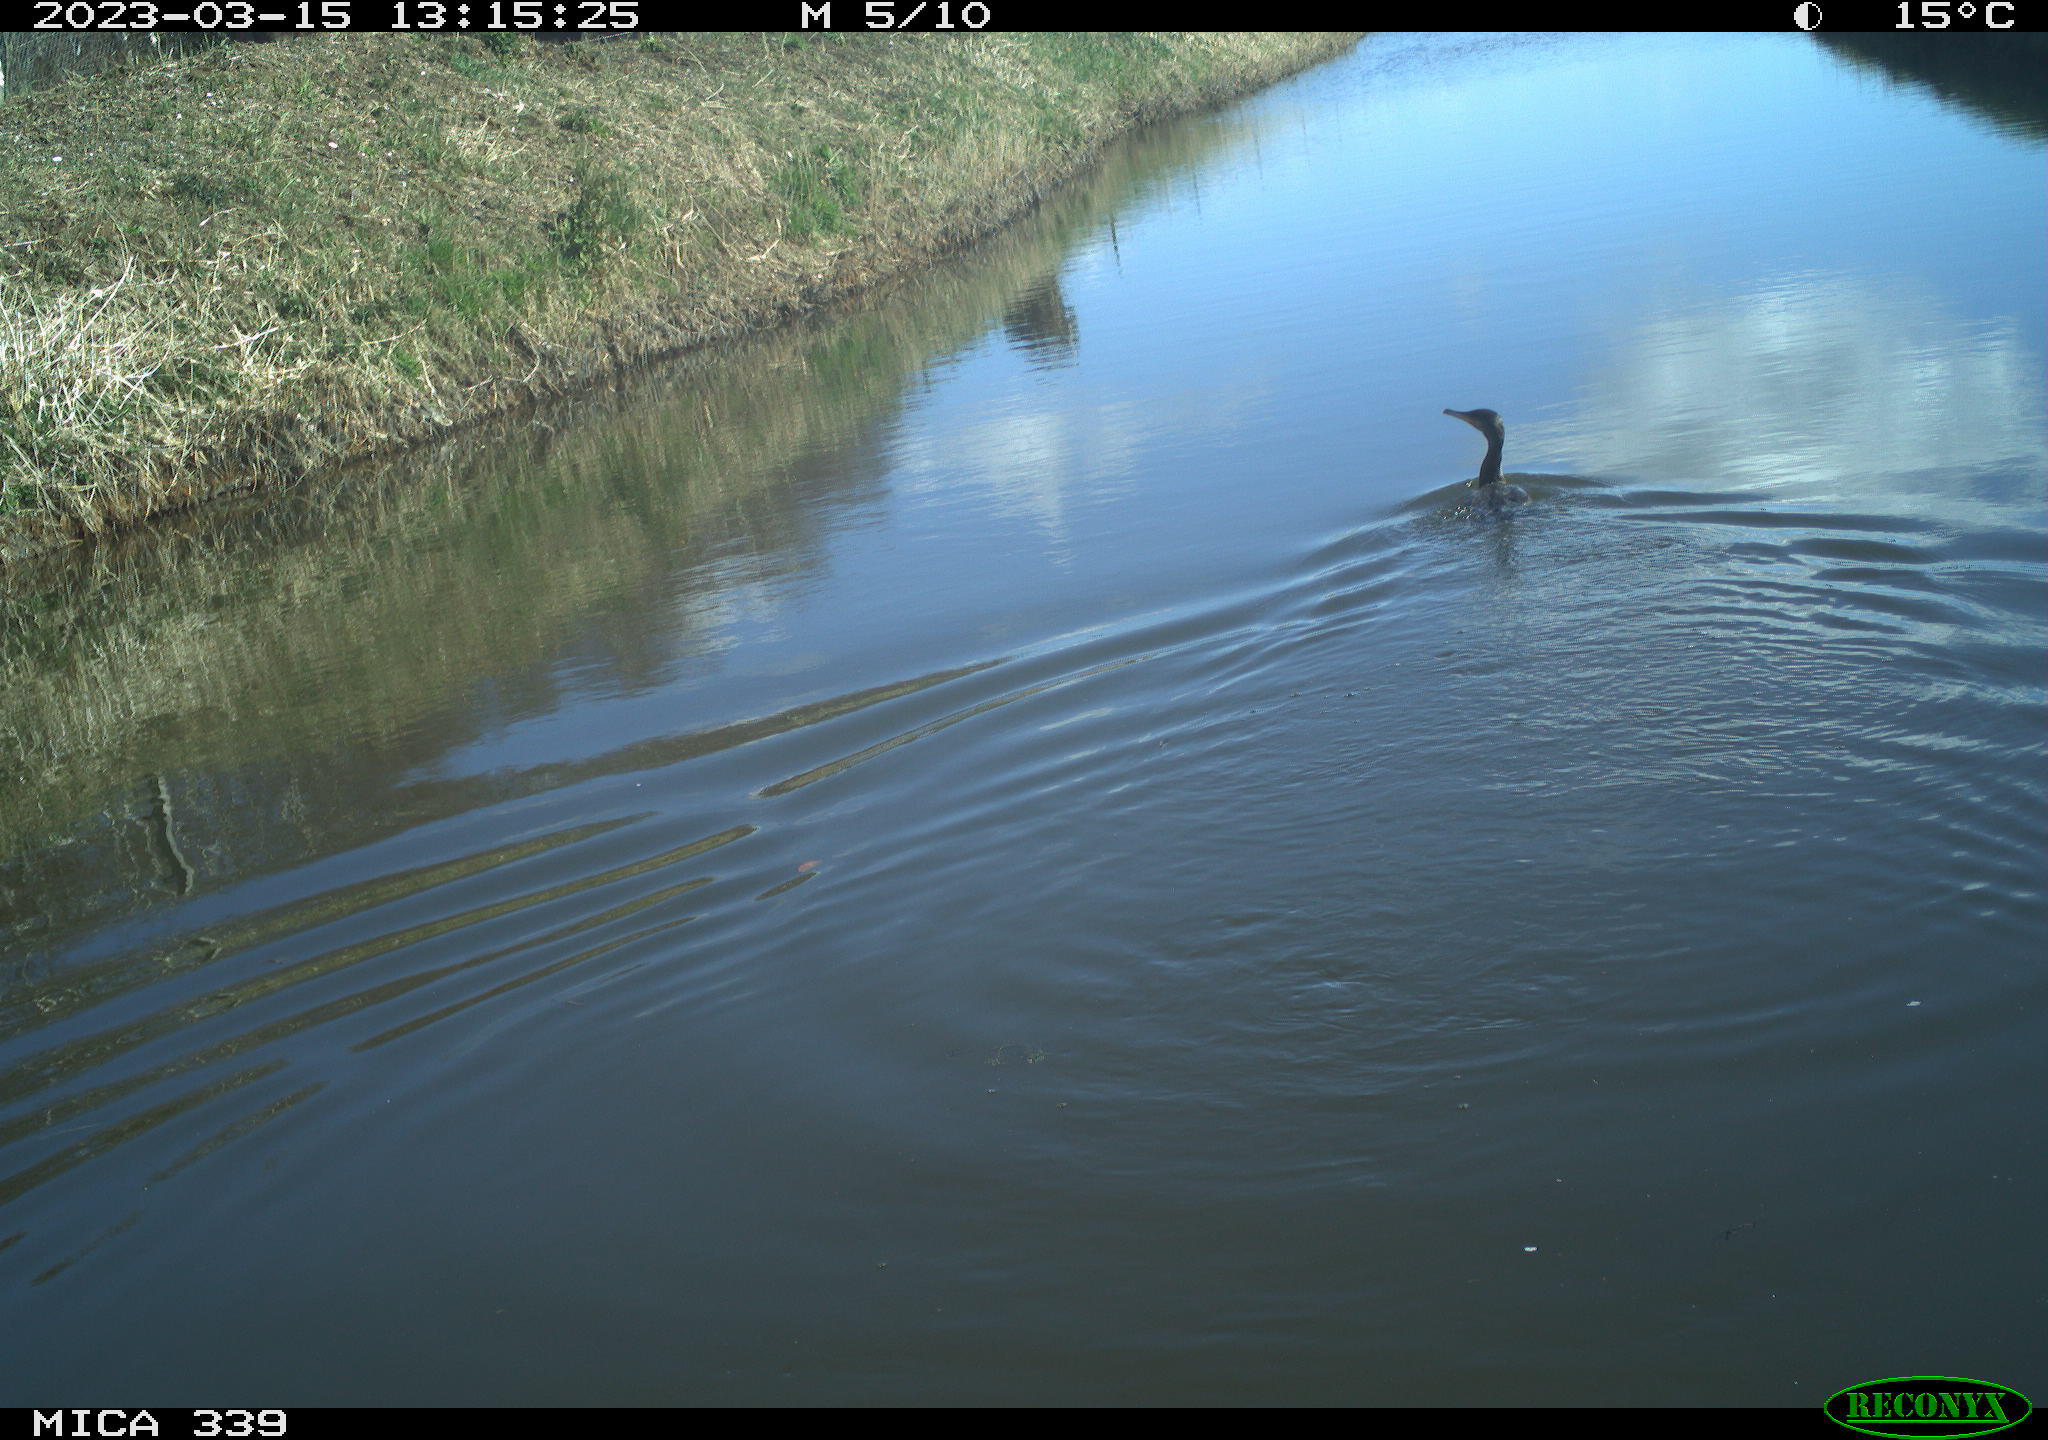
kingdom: Animalia
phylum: Chordata
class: Aves
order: Anseriformes
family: Anatidae
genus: Anas
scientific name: Anas
